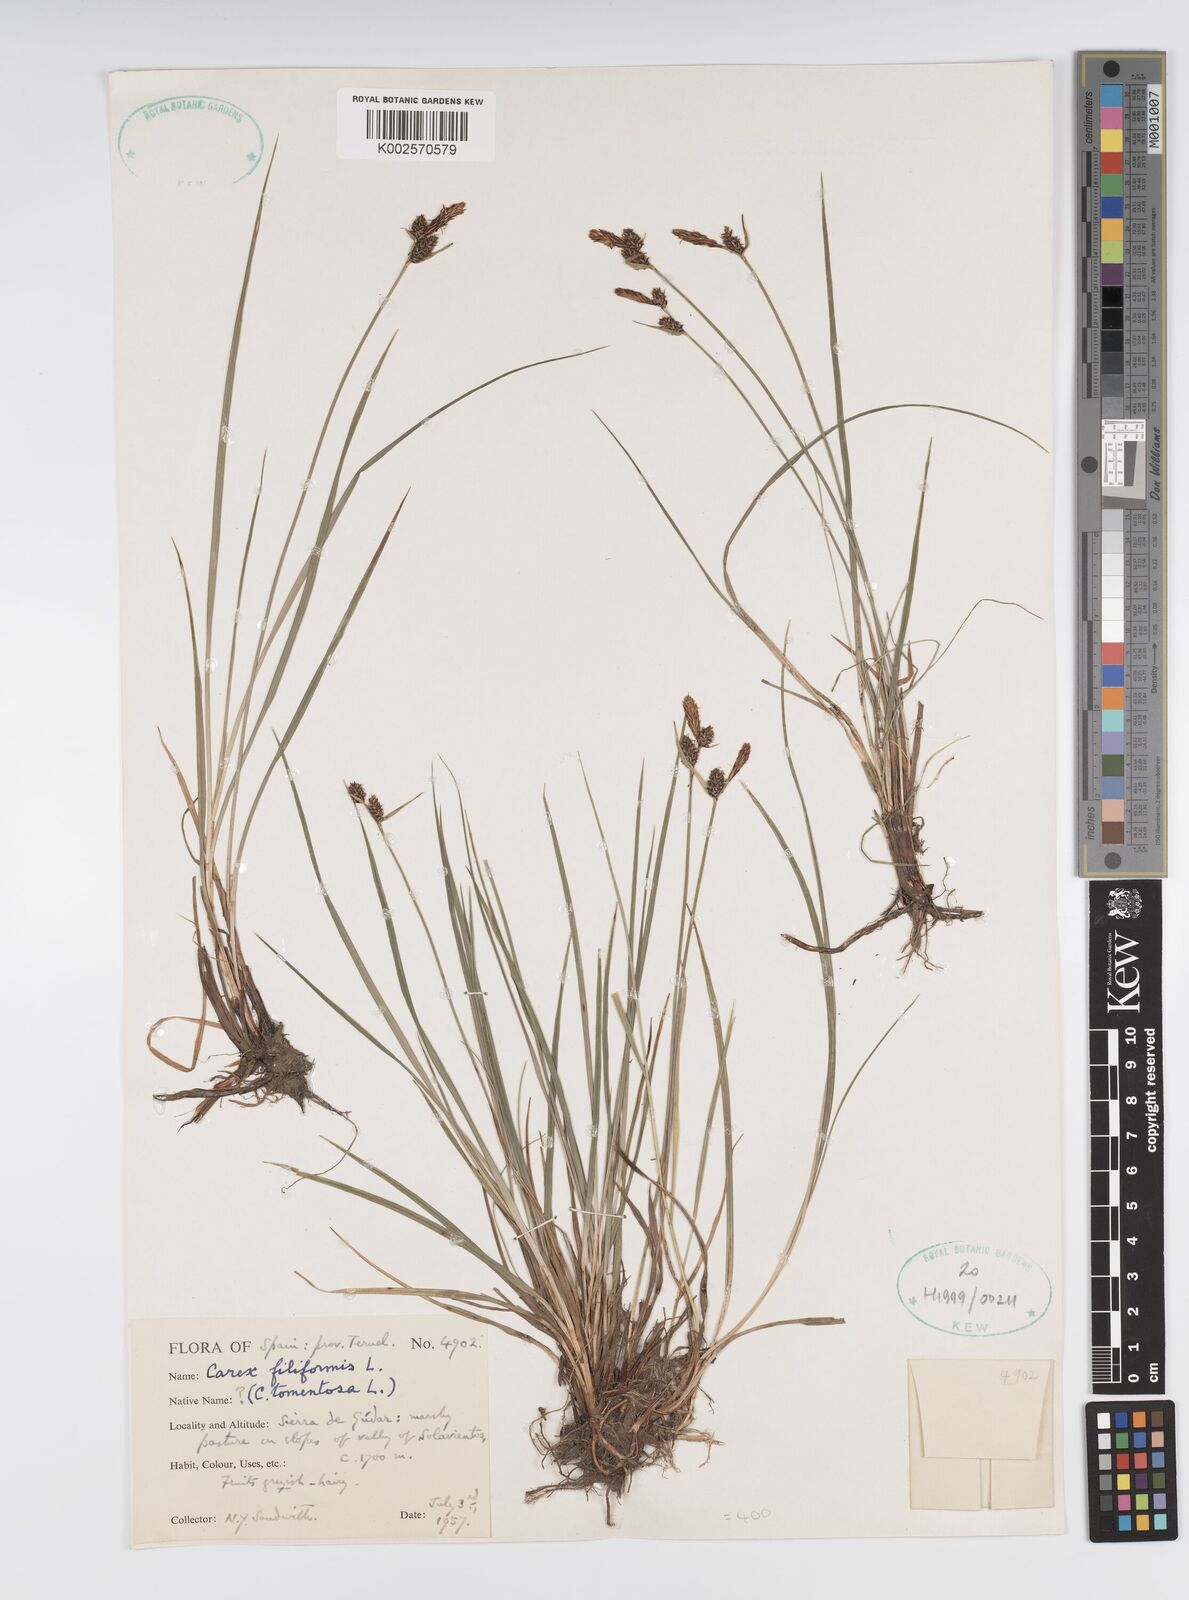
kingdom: Plantae
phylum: Tracheophyta
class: Liliopsida
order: Poales
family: Cyperaceae
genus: Carex
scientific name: Carex montana
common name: Soft-leaved sedge
